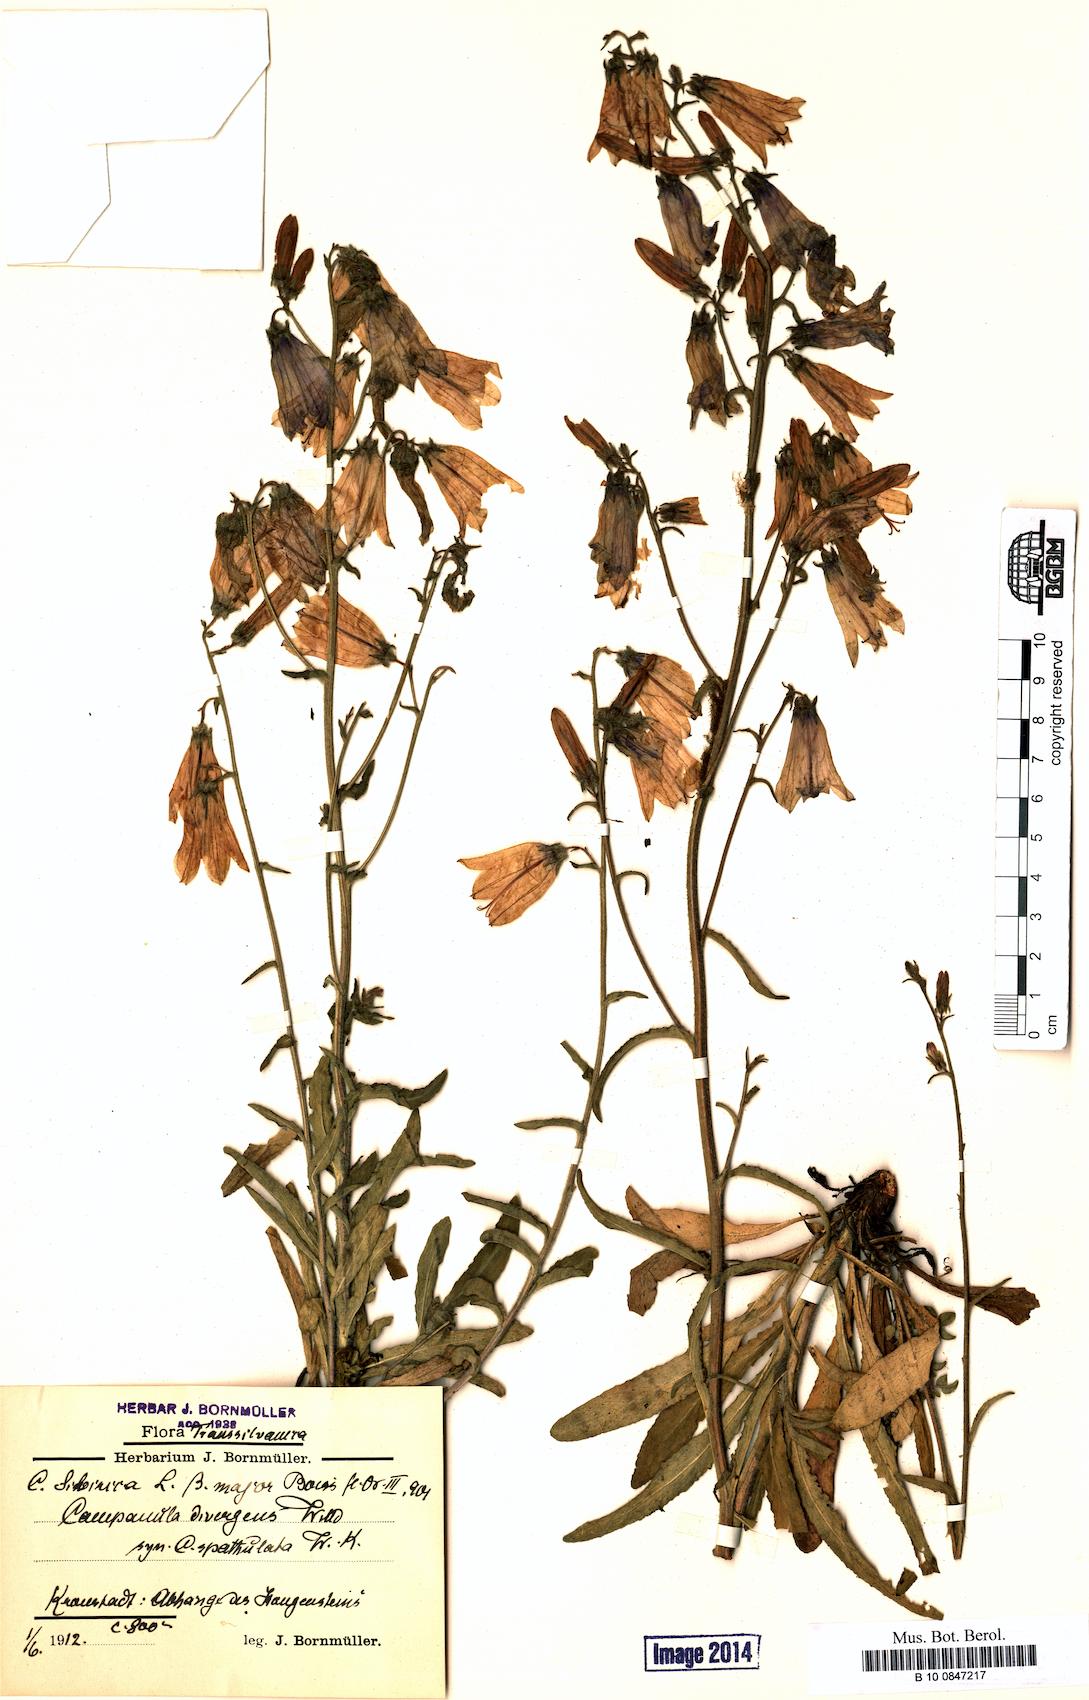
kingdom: Plantae
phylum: Tracheophyta
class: Magnoliopsida
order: Asterales
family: Campanulaceae
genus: Campanula
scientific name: Campanula sibirica
